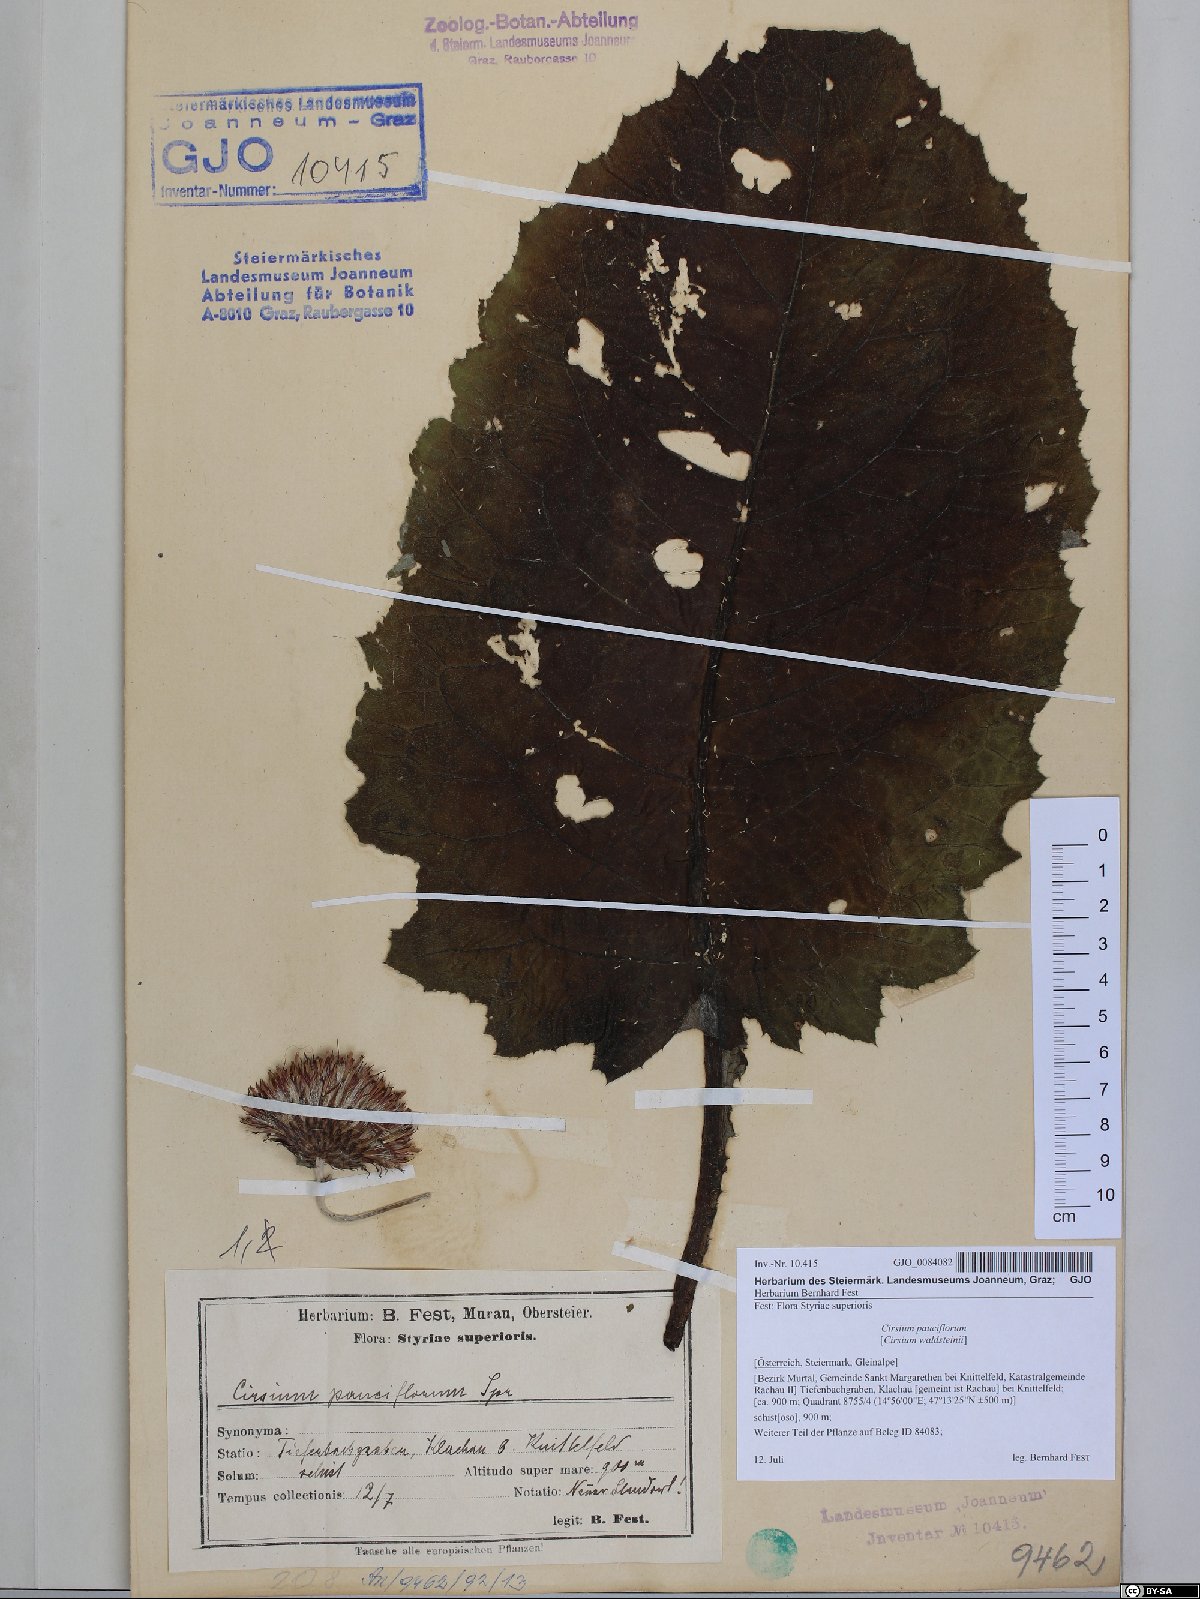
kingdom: Plantae
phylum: Tracheophyta
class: Magnoliopsida
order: Asterales
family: Asteraceae
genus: Cirsium
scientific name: Cirsium greimleri
